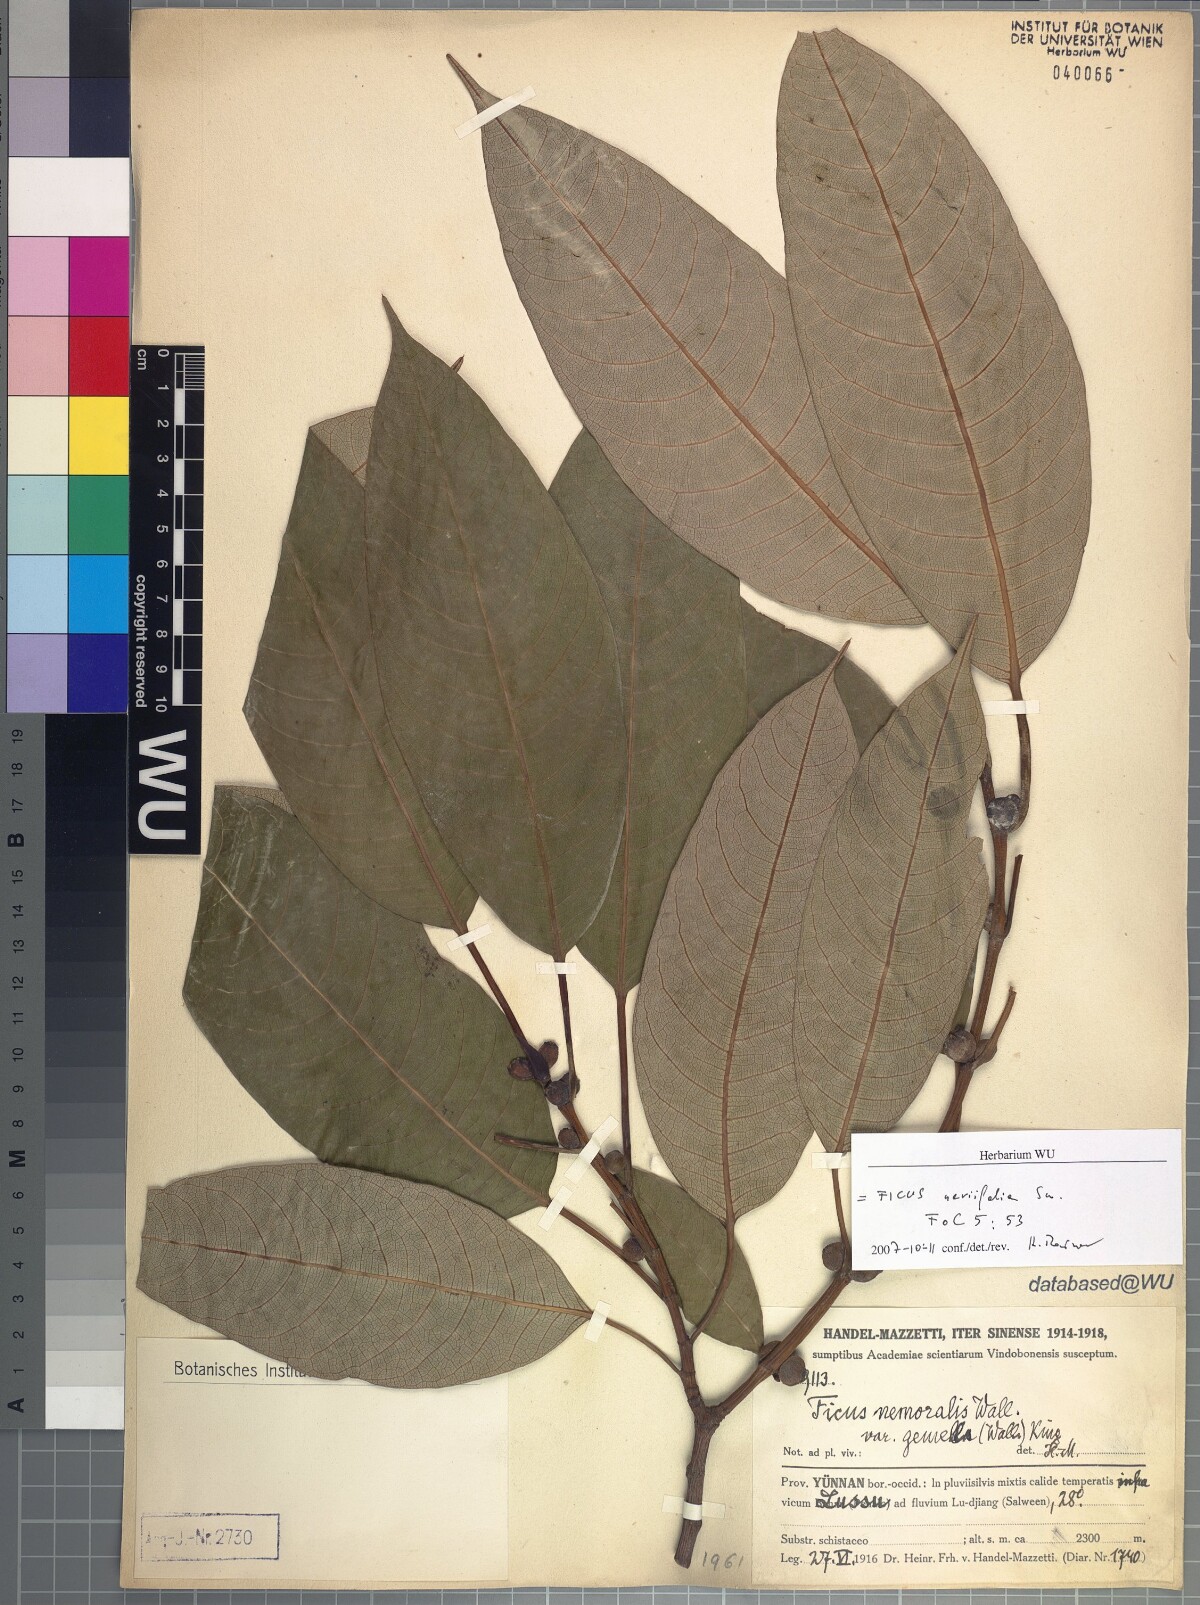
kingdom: Plantae
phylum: Tracheophyta
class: Magnoliopsida
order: Rosales
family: Moraceae
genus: Ficus
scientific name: Ficus neriifolia
